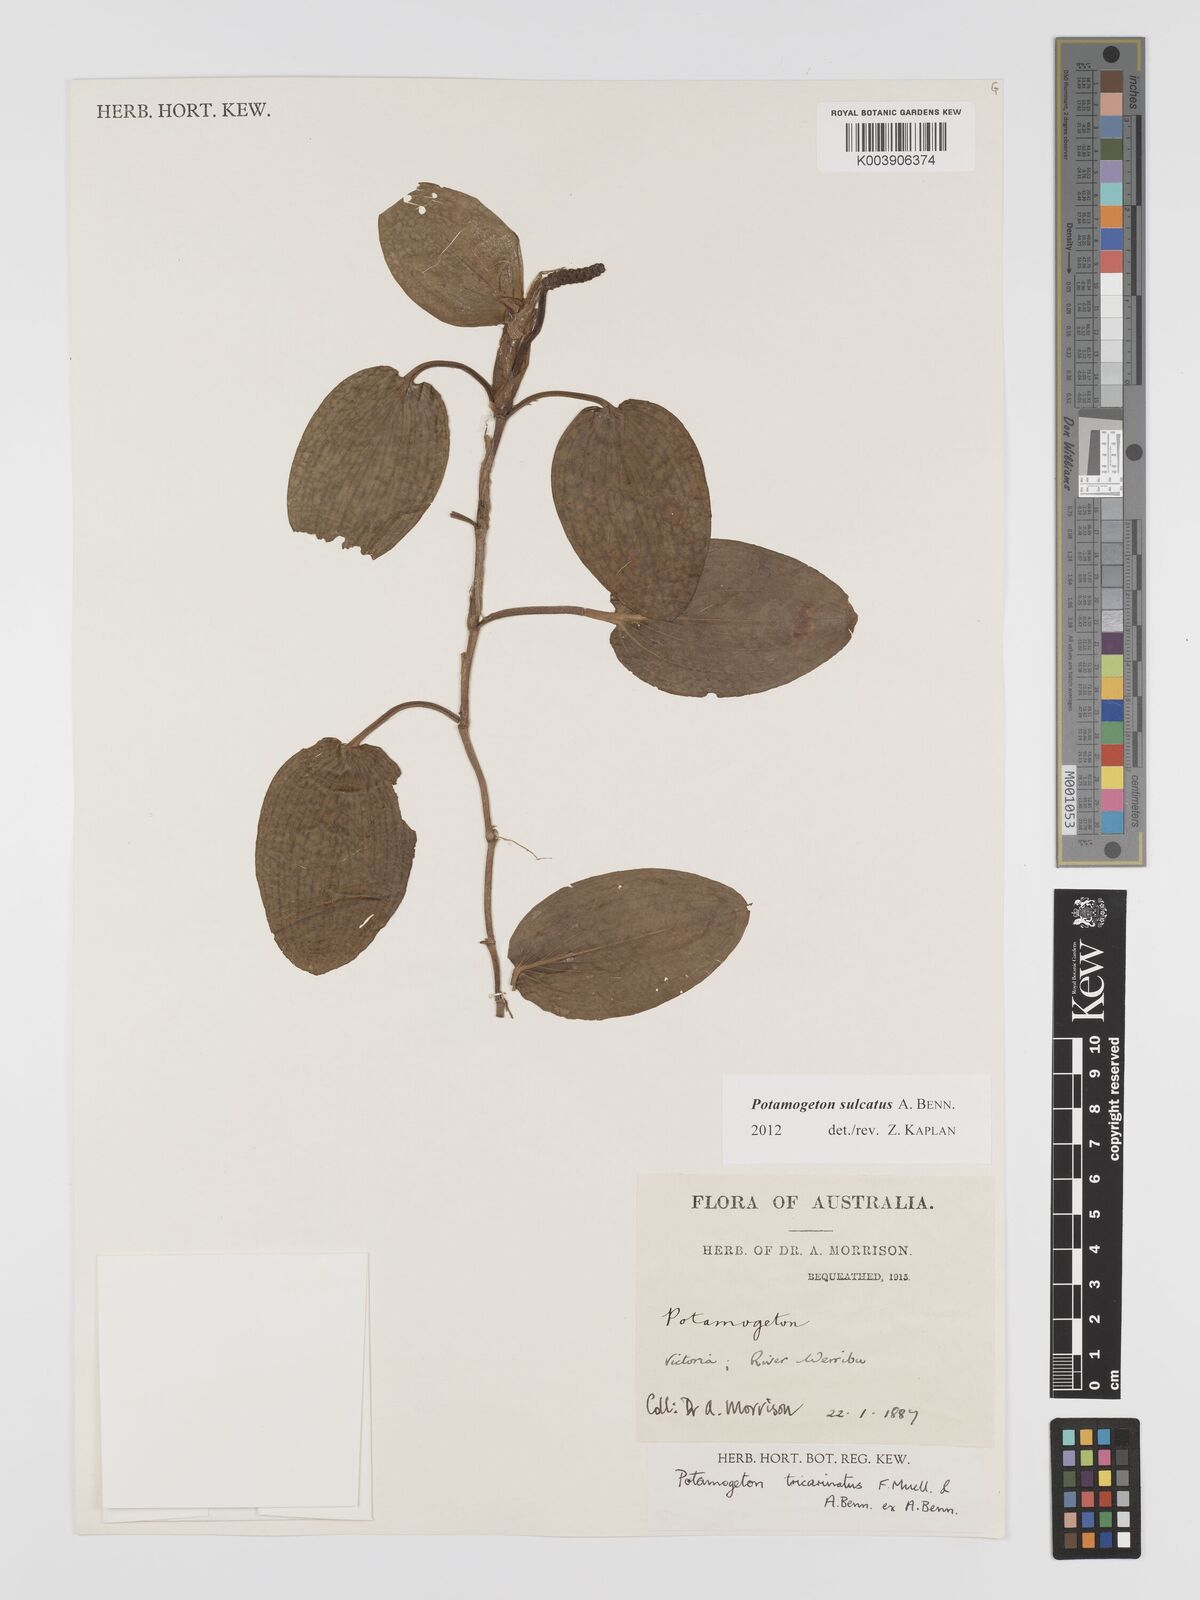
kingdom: Plantae
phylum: Tracheophyta
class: Liliopsida
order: Alismatales
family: Potamogetonaceae
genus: Potamogeton
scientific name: Potamogeton tricarinatus
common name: Pondweed
